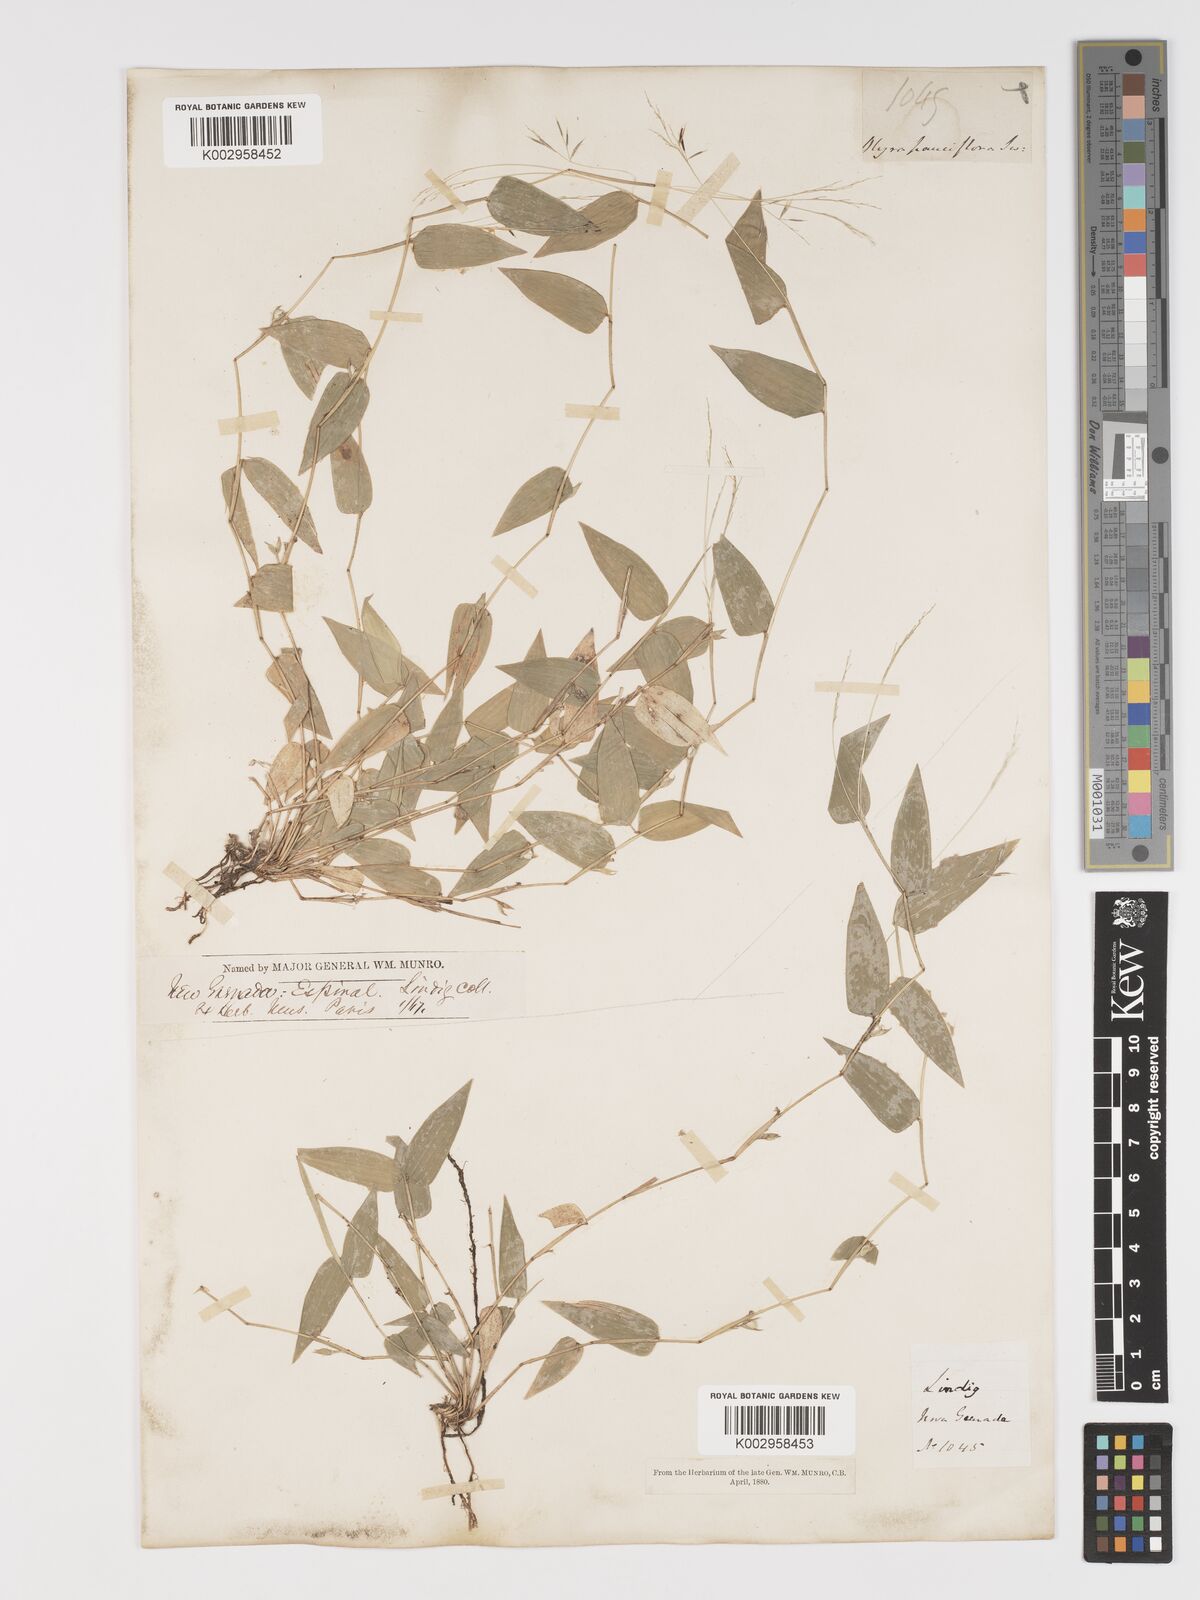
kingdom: Plantae
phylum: Tracheophyta
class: Liliopsida
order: Poales
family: Poaceae
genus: Lithachne
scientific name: Lithachne pauciflora
